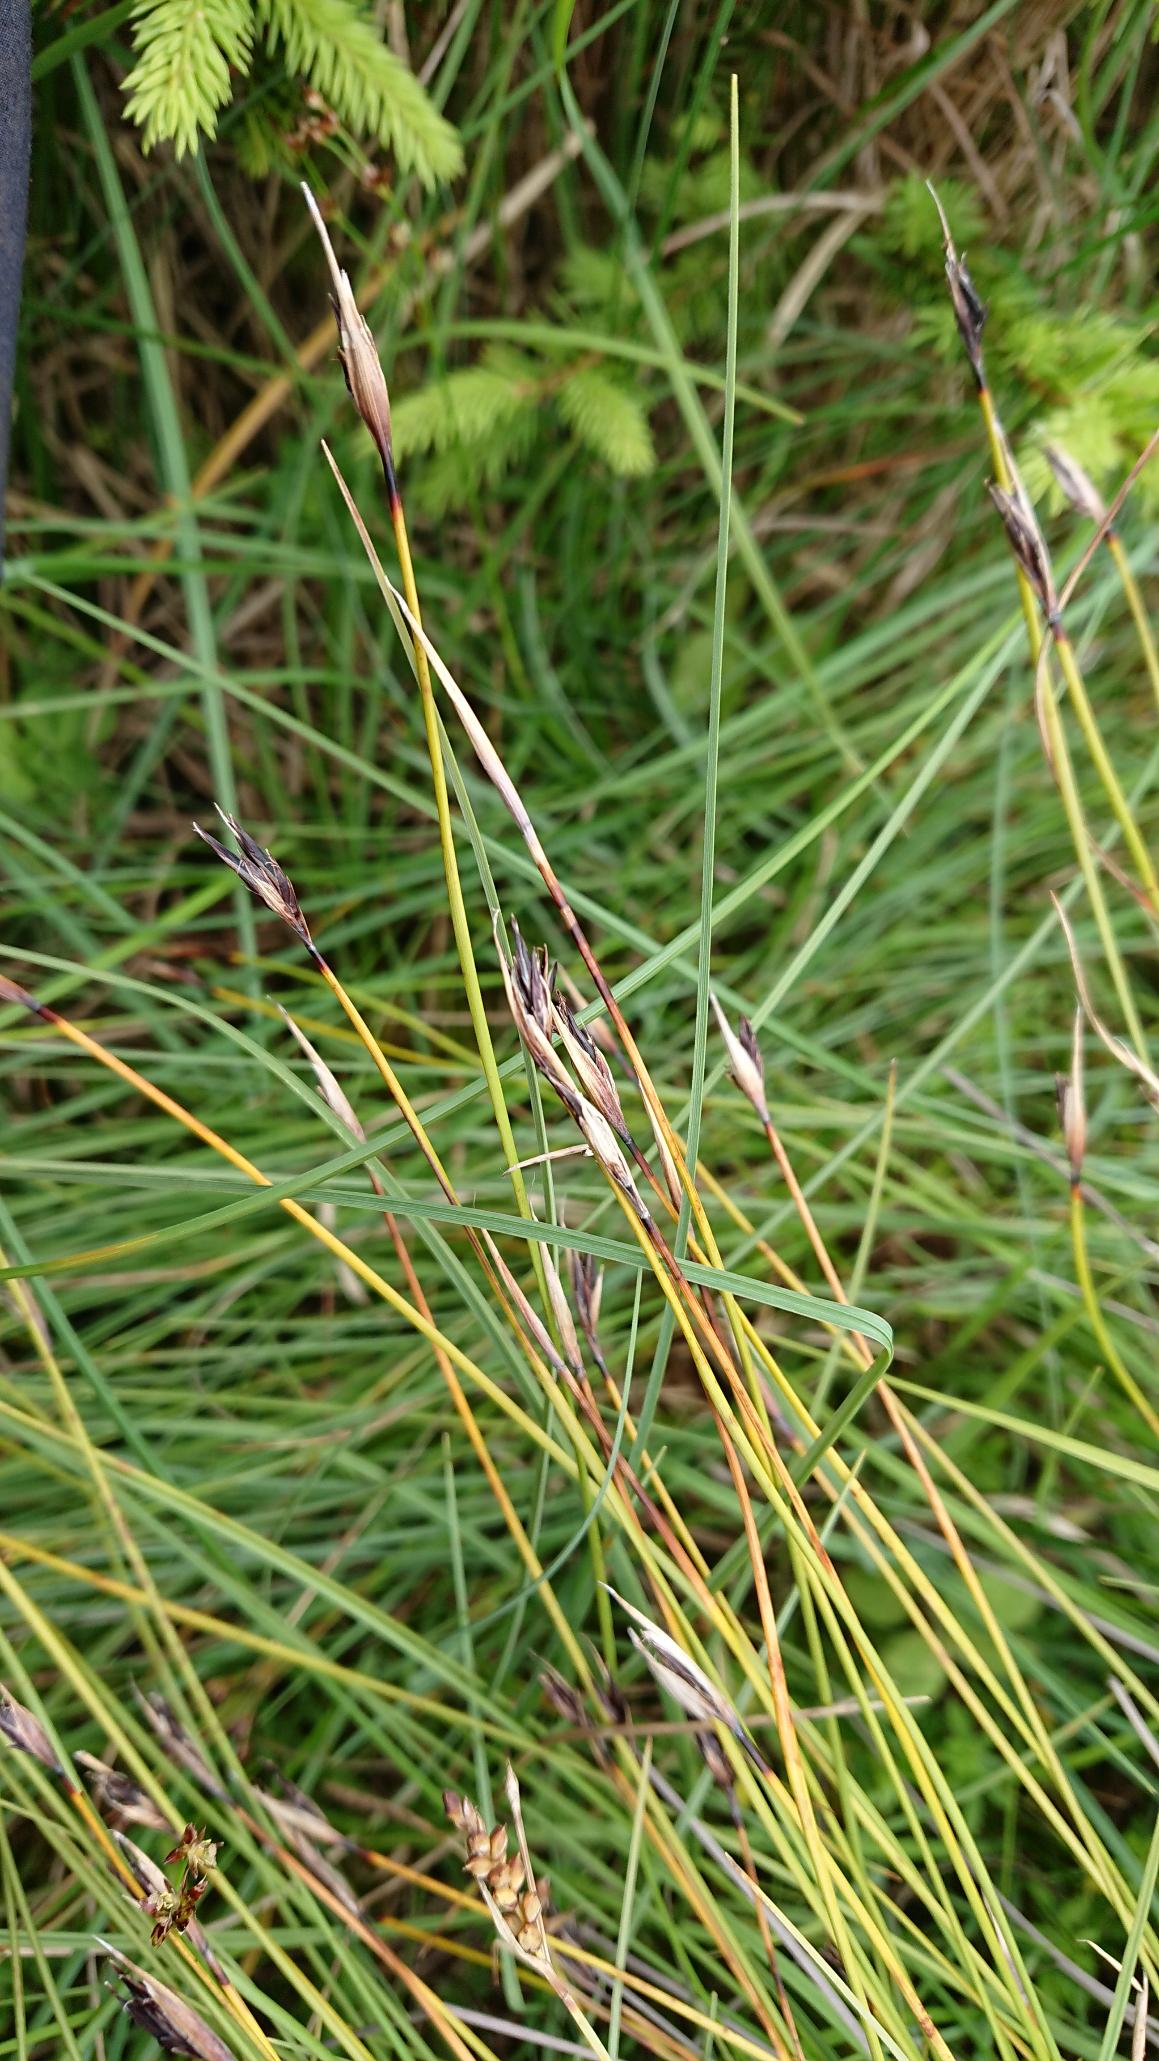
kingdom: Plantae
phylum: Tracheophyta
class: Liliopsida
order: Poales
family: Cyperaceae
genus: Schoenus
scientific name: Schoenus ferrugineus
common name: Rust-skæne
